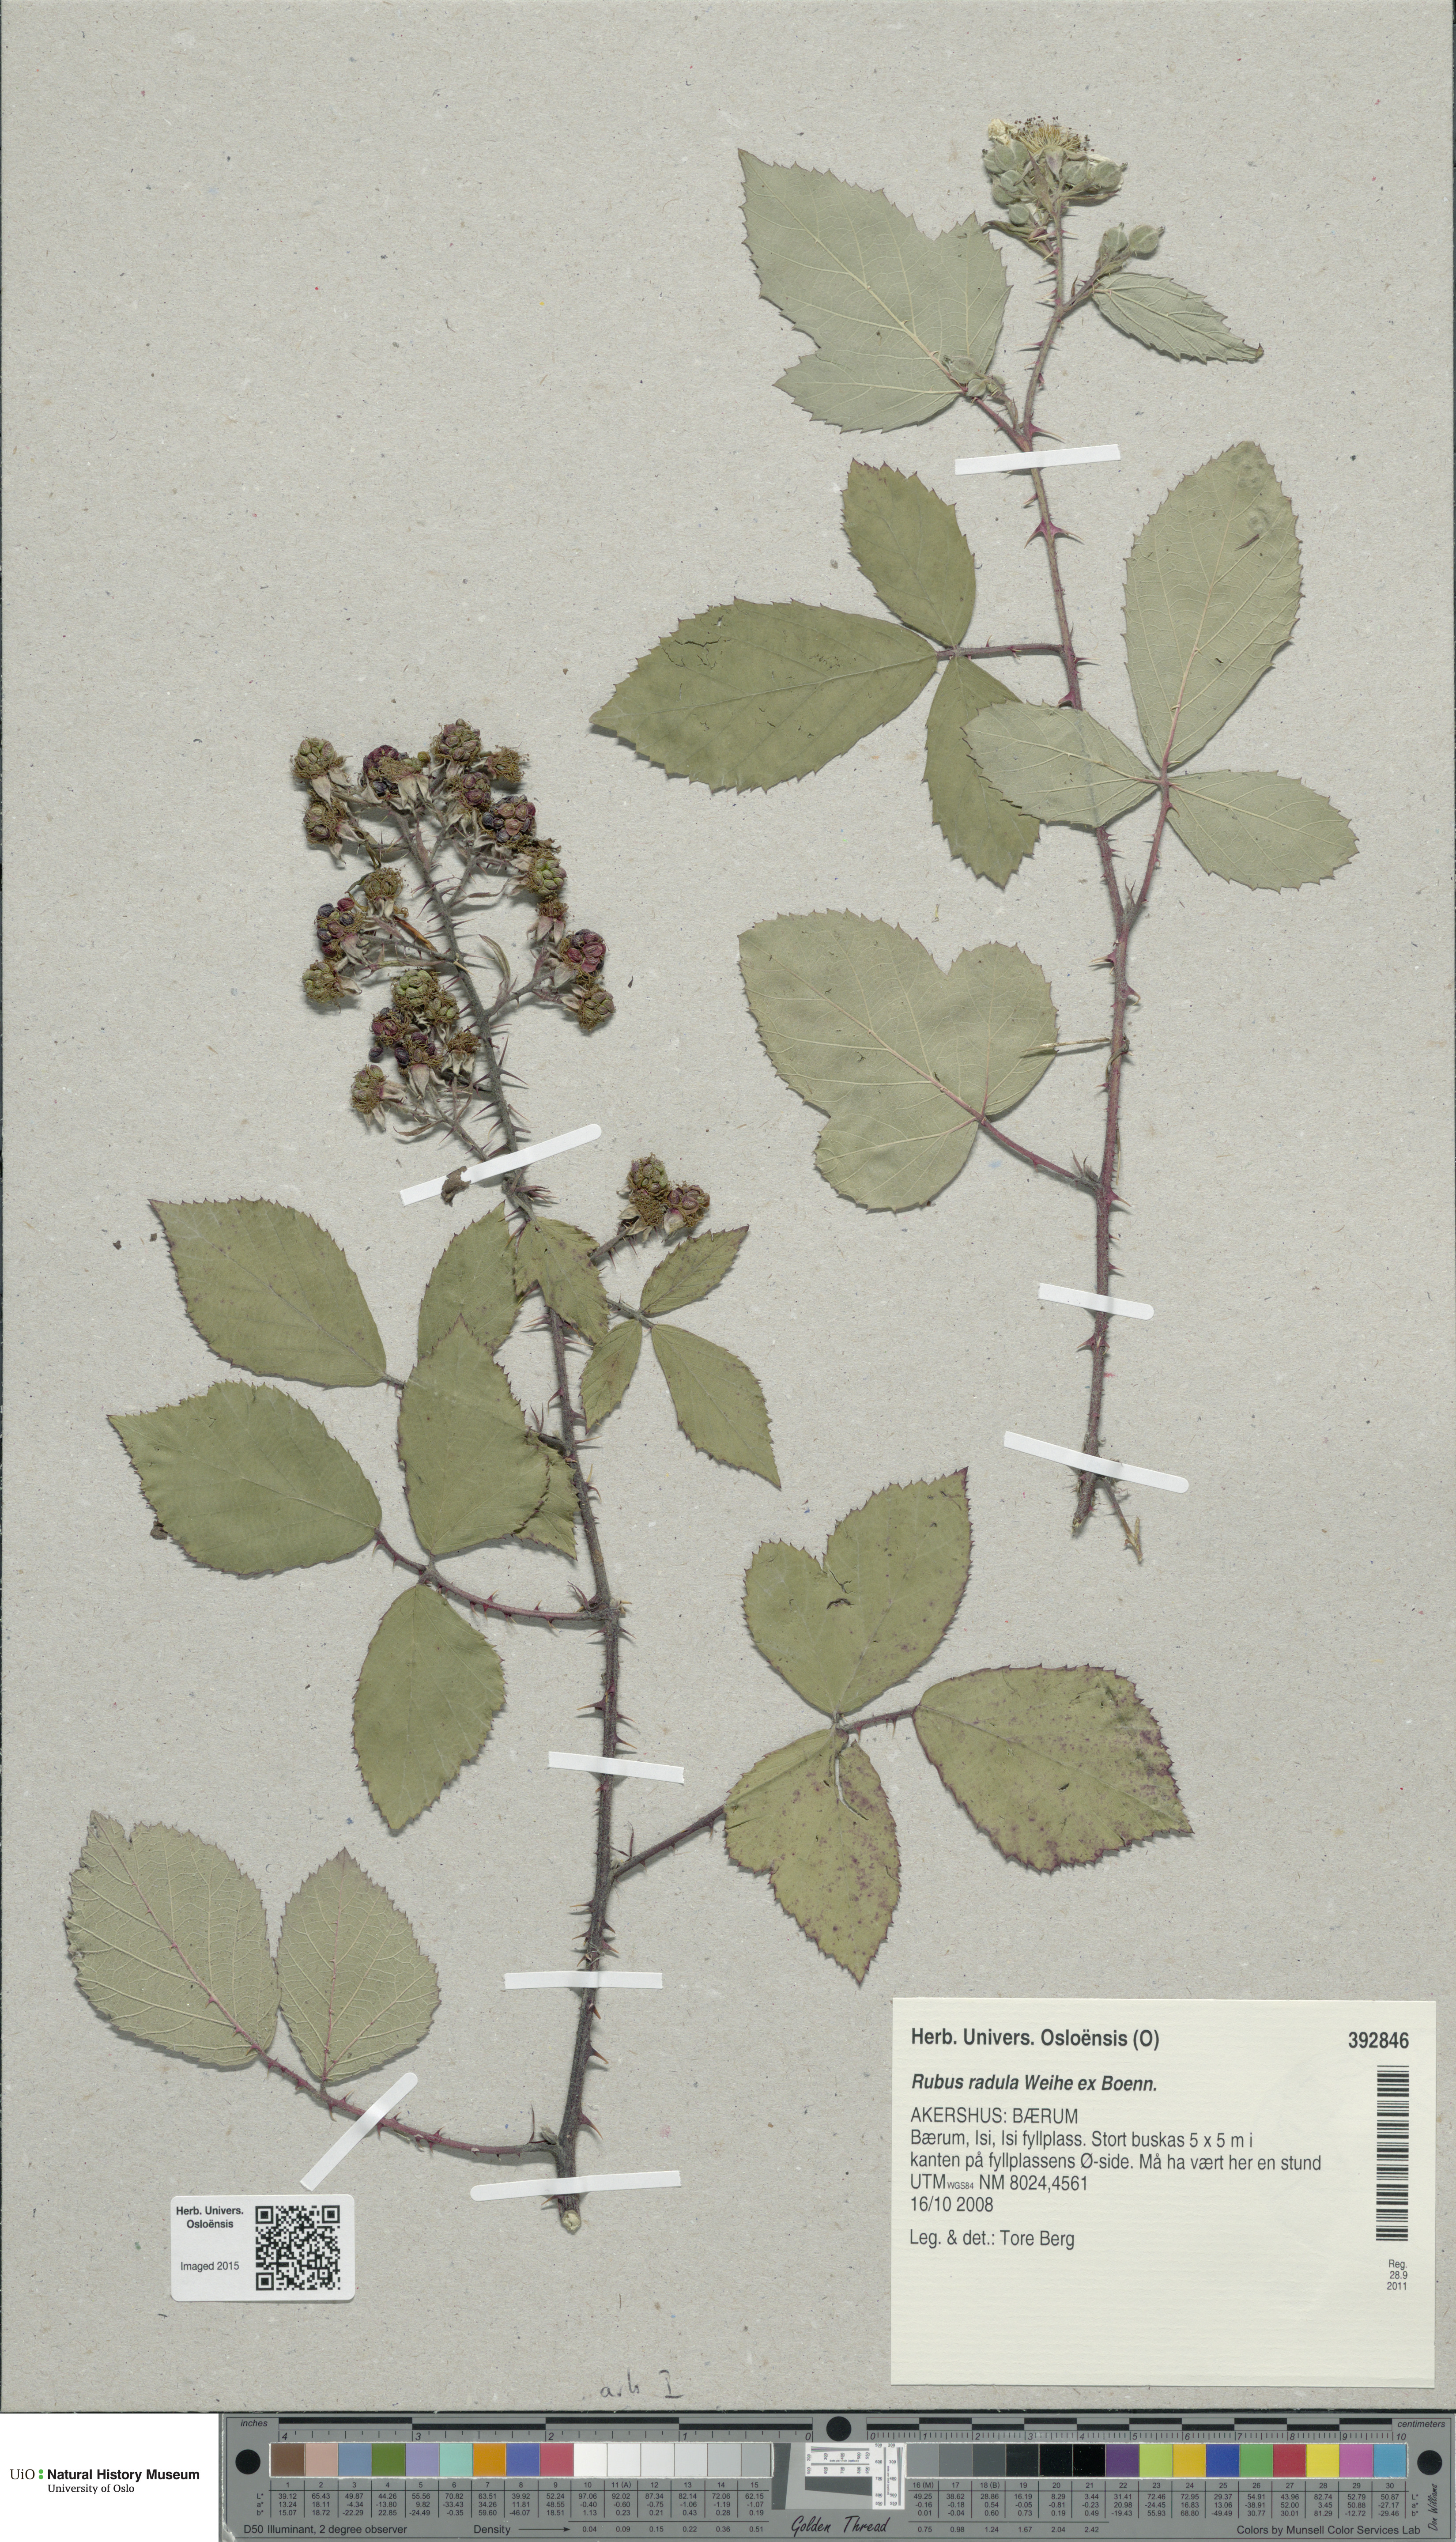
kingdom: Plantae
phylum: Tracheophyta
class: Magnoliopsida
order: Rosales
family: Rosaceae
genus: Rubus
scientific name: Rubus radula
